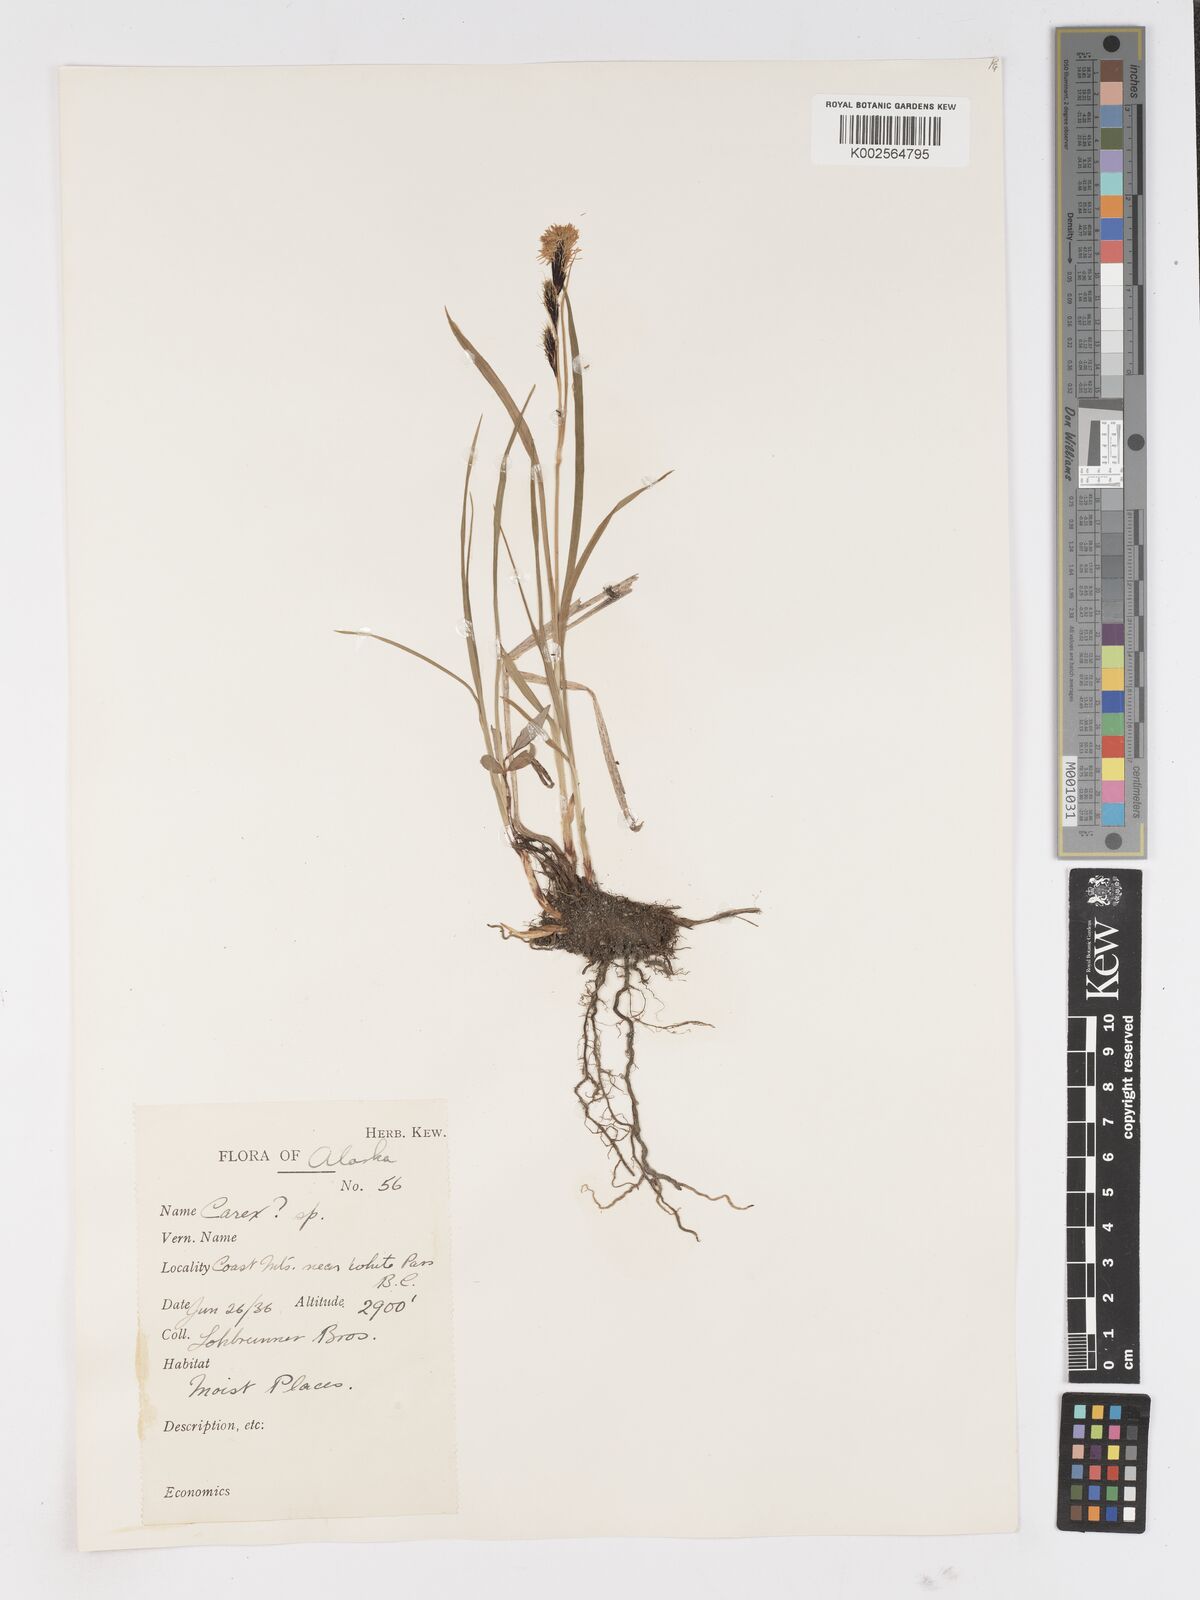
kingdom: Plantae
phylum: Tracheophyta
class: Liliopsida
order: Poales
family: Cyperaceae
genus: Carex
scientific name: Carex
